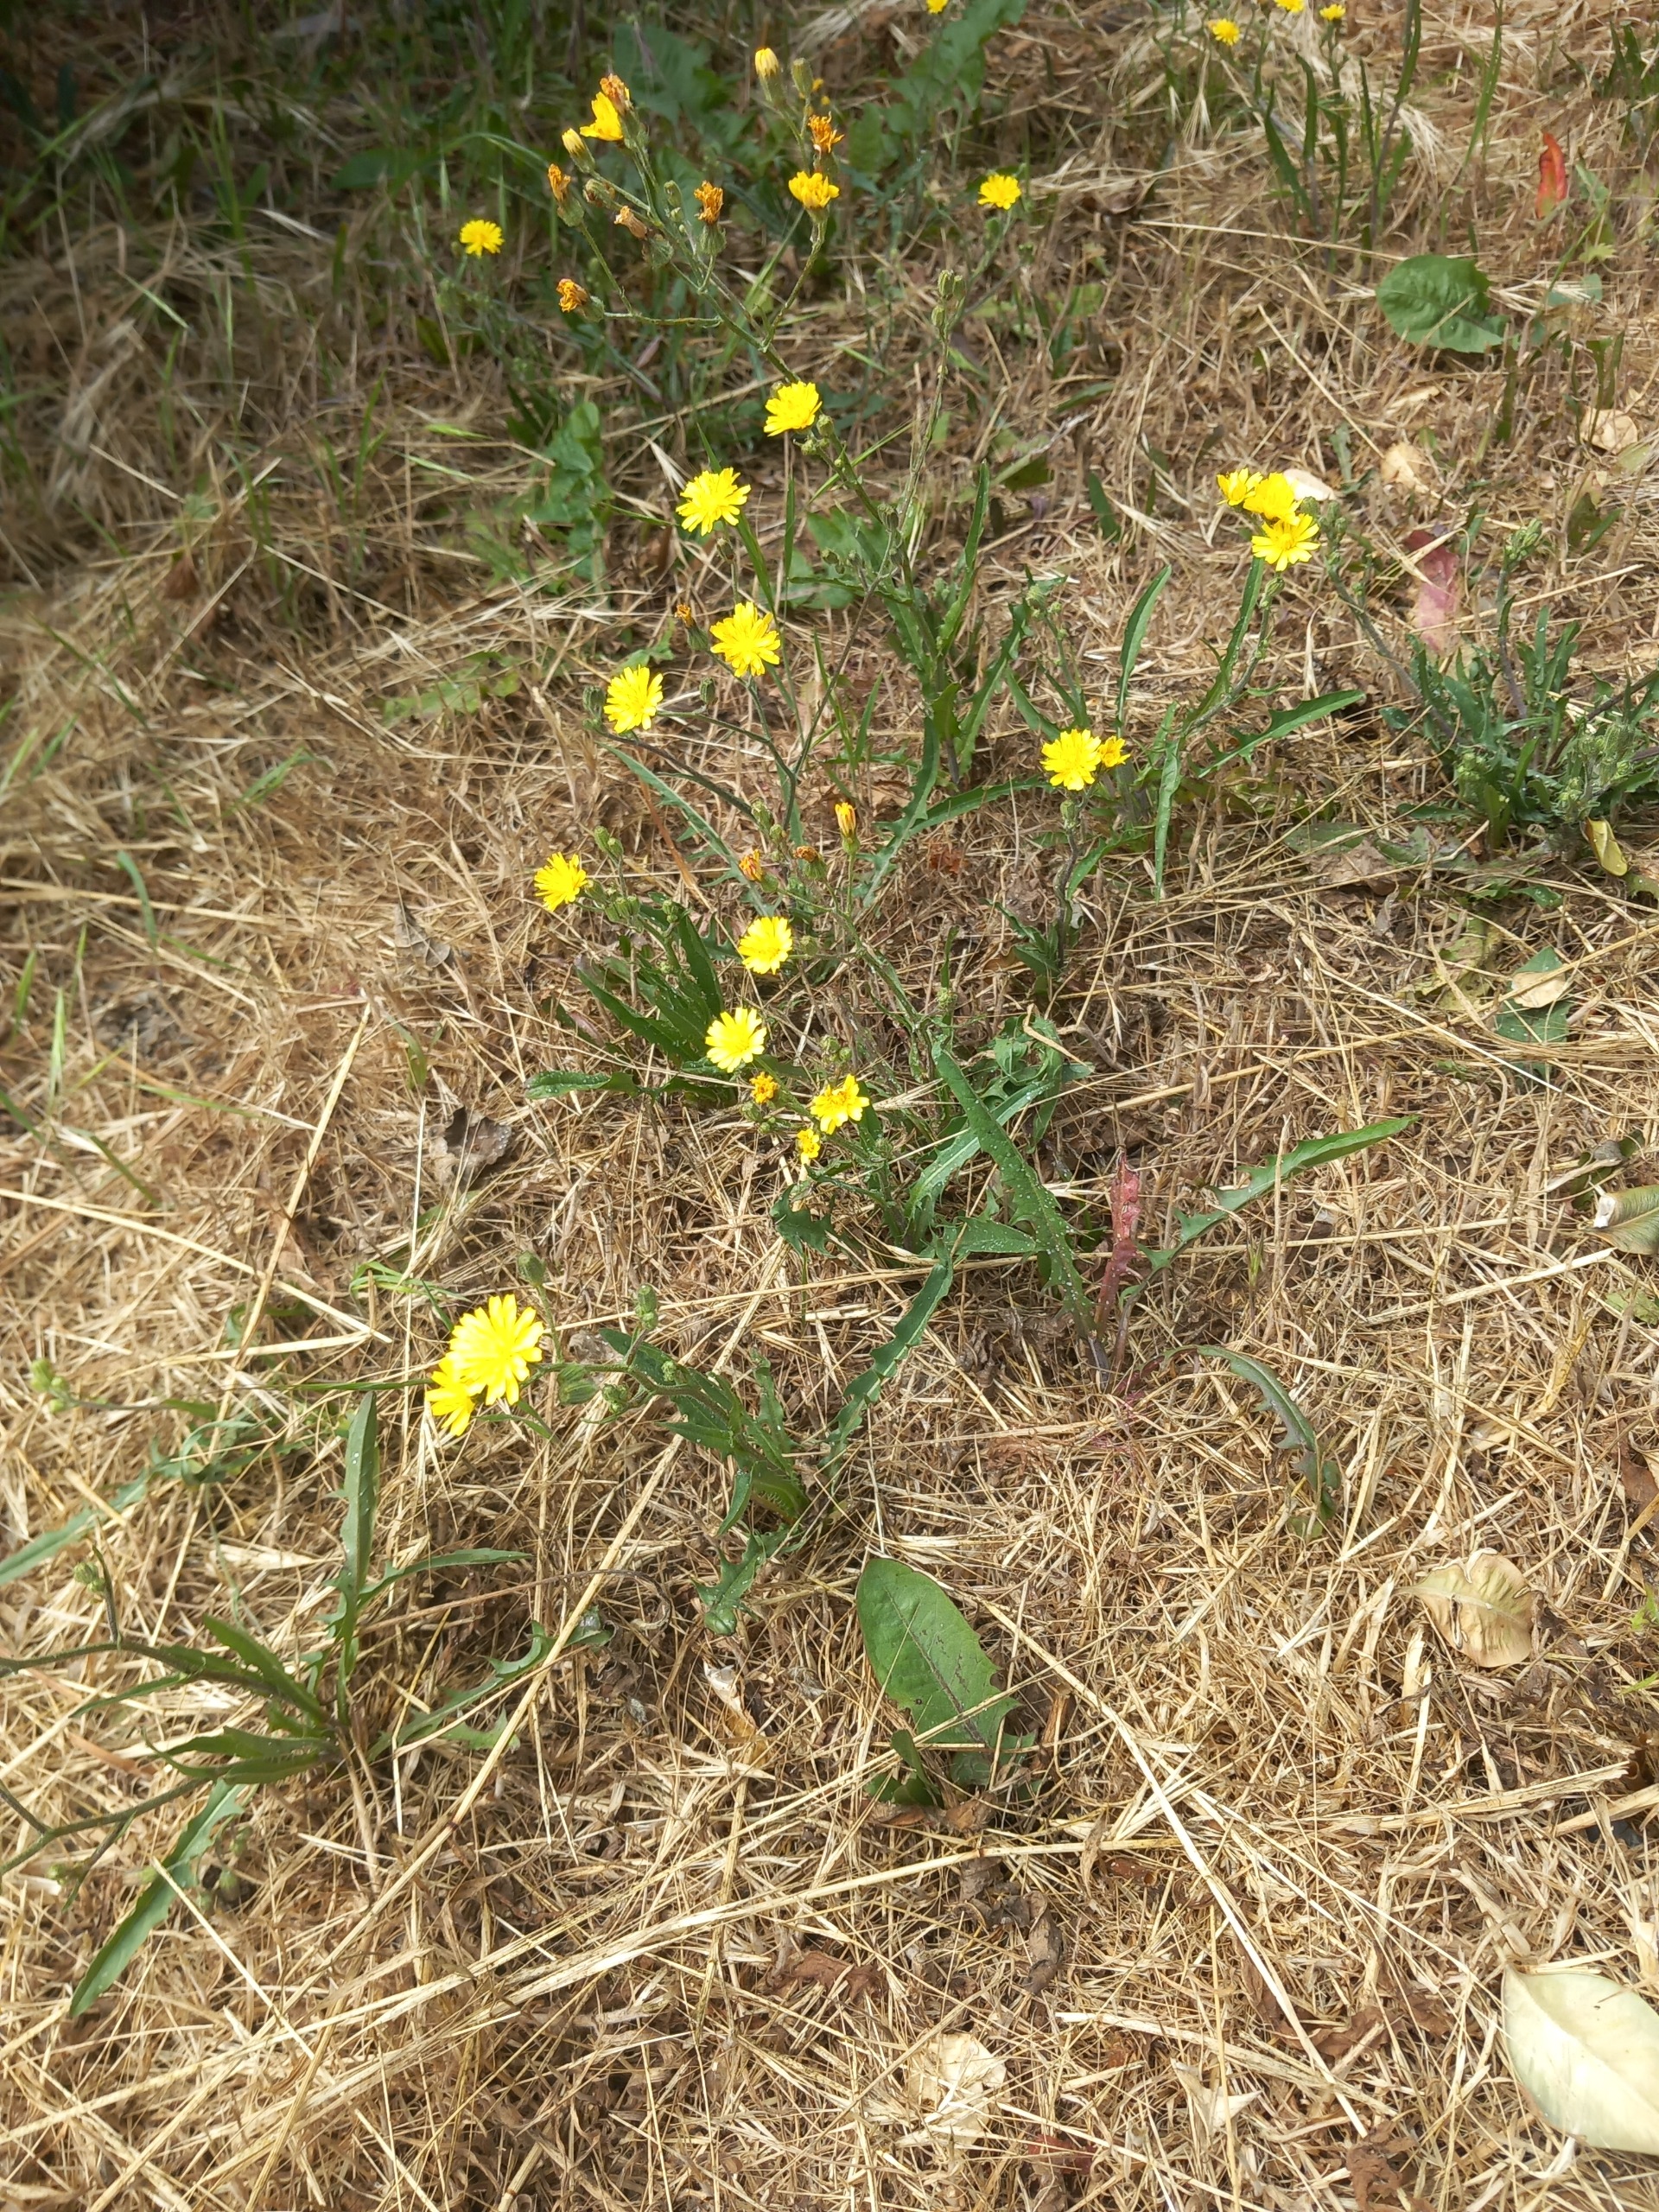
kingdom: Plantae
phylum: Tracheophyta
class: Magnoliopsida
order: Asterales
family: Asteraceae
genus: Crepis
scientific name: Crepis capillaris
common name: Grøn høgeskæg
